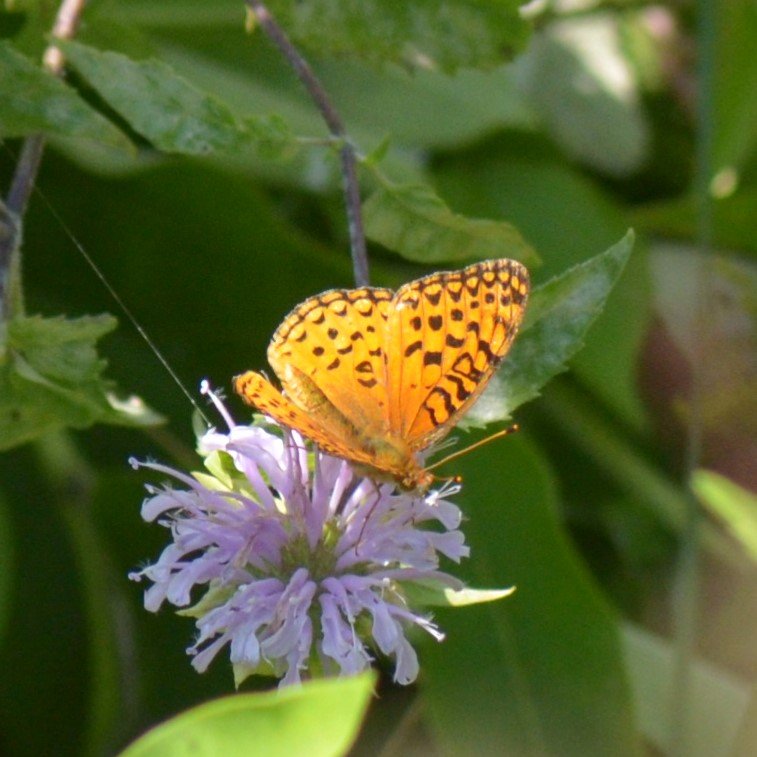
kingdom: Animalia
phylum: Arthropoda
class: Insecta
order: Lepidoptera
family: Nymphalidae
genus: Speyeria
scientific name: Speyeria aphrodite
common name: Aphrodite Fritillary
